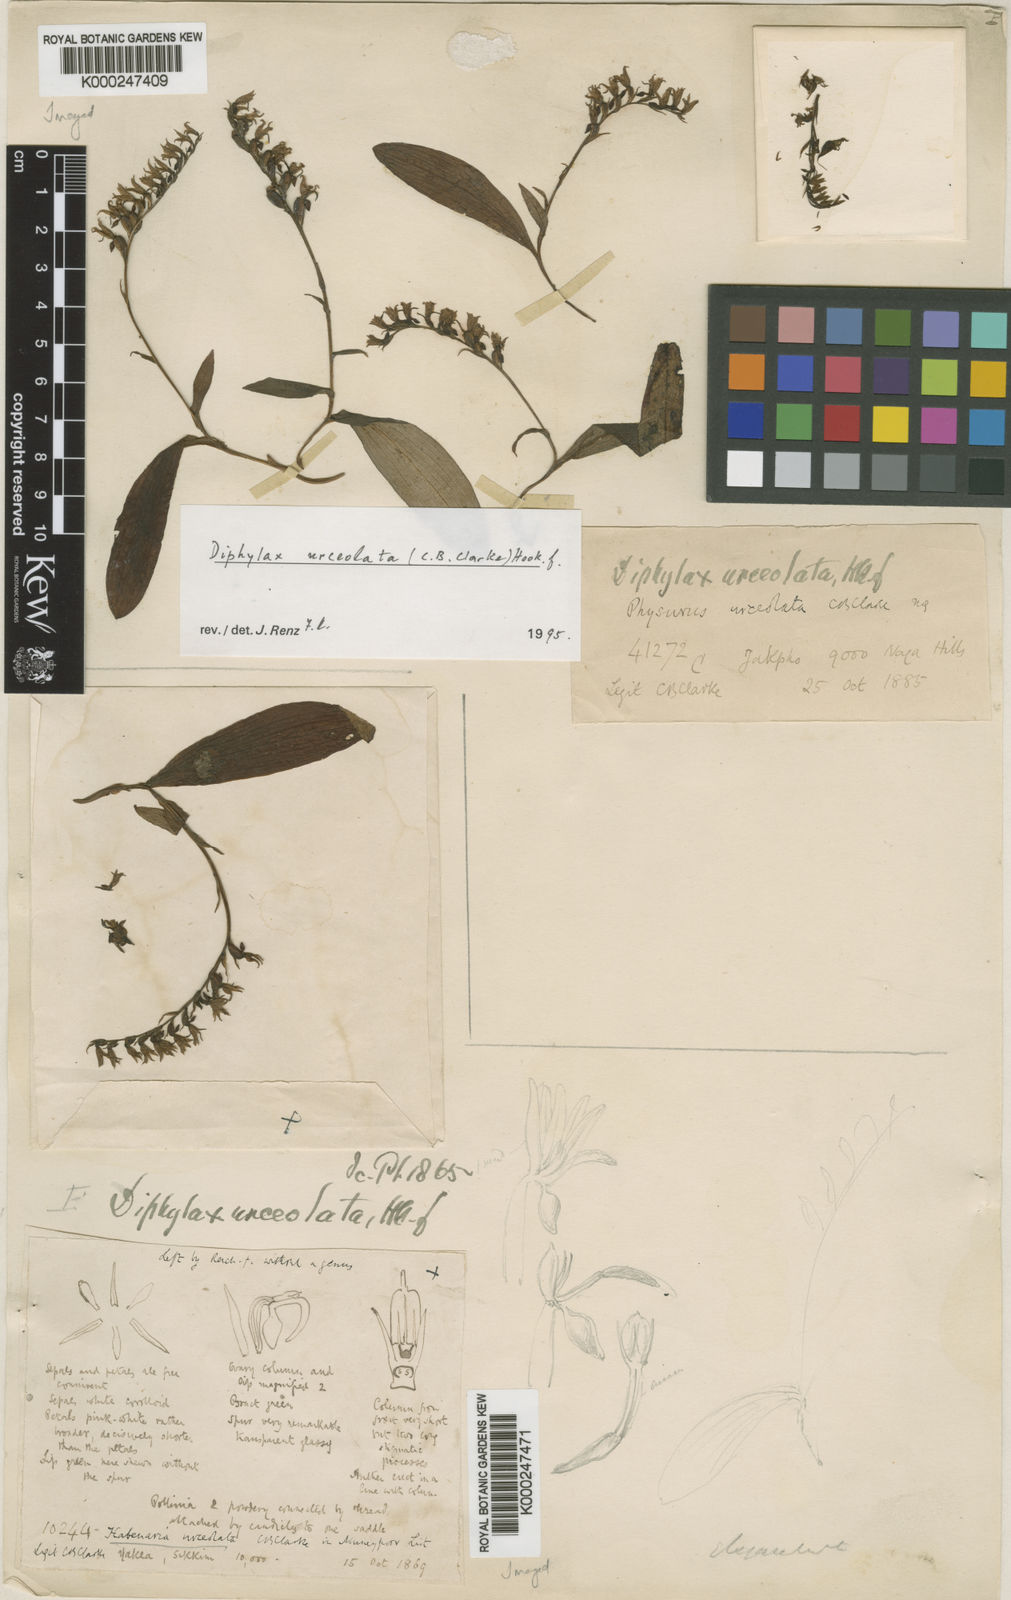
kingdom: Plantae
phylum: Tracheophyta
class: Liliopsida
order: Asparagales
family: Orchidaceae
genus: Platanthera
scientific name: Platanthera urceolata
